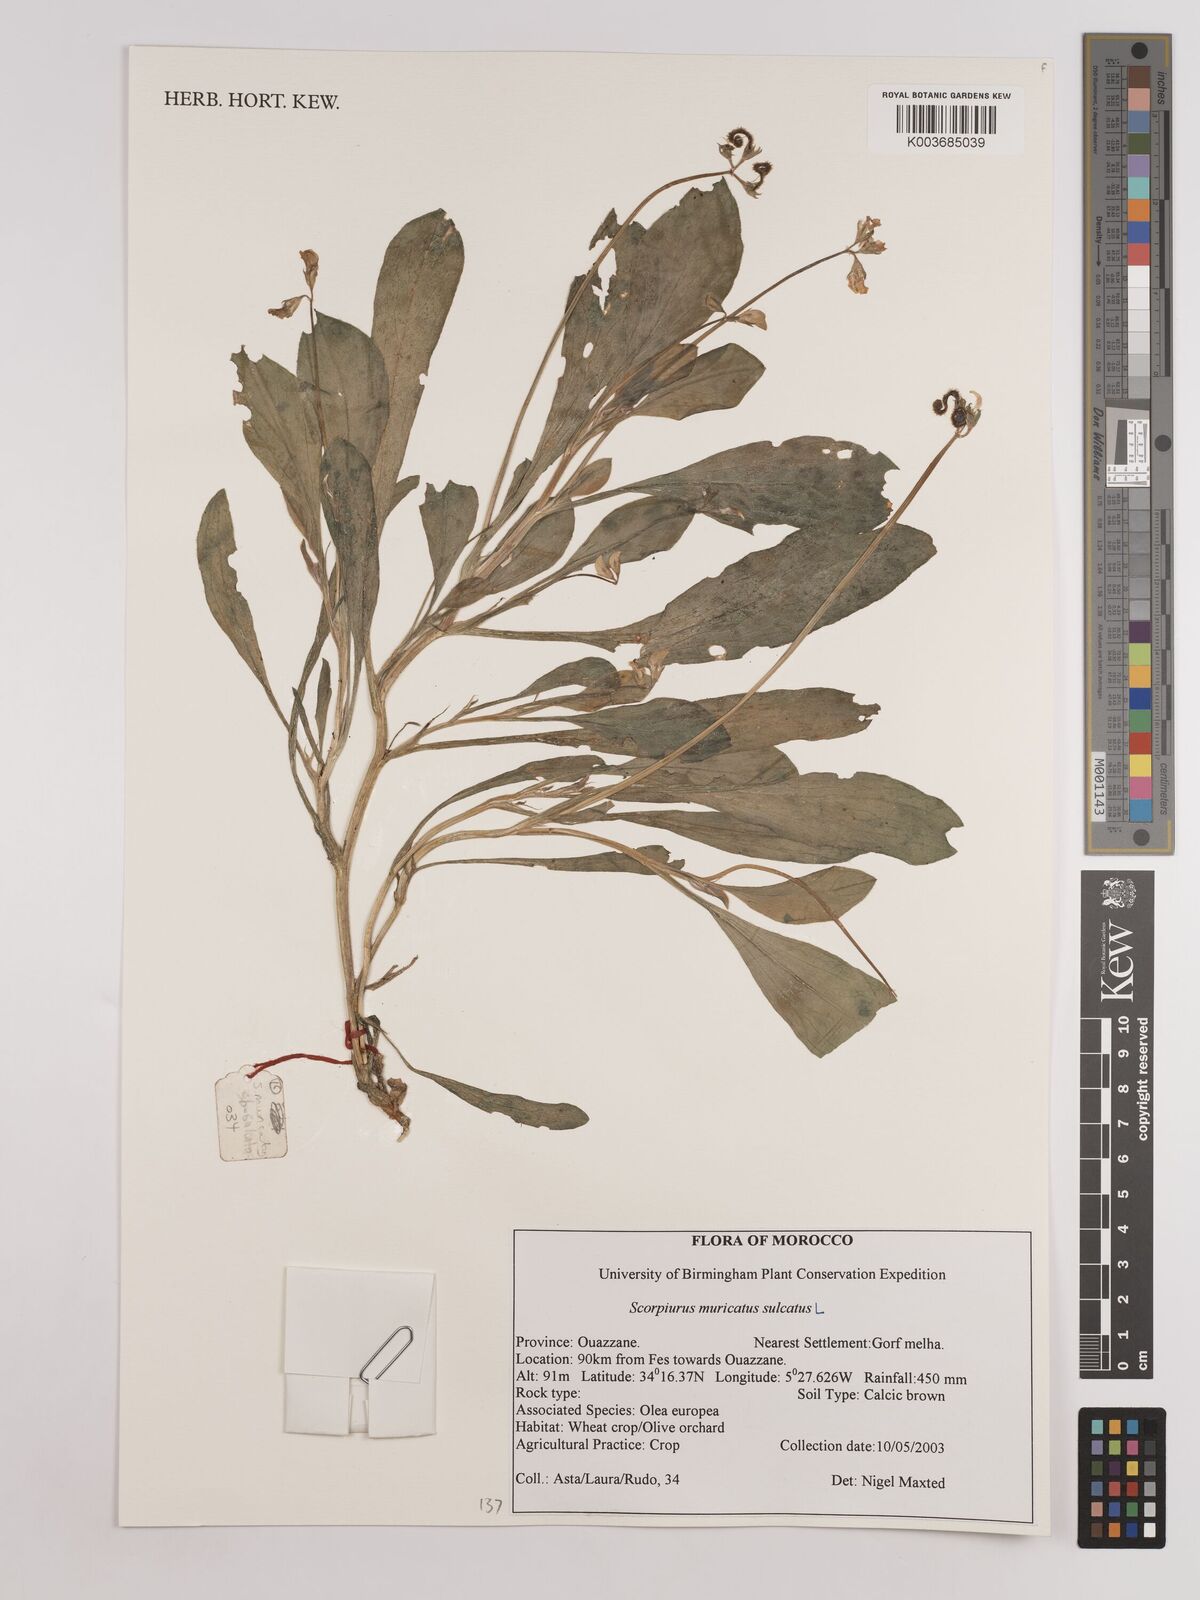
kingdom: Plantae
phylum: Tracheophyta
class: Magnoliopsida
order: Fabales
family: Fabaceae
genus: Scorpiurus
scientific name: Scorpiurus muricatus
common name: Caterpillar-plant
